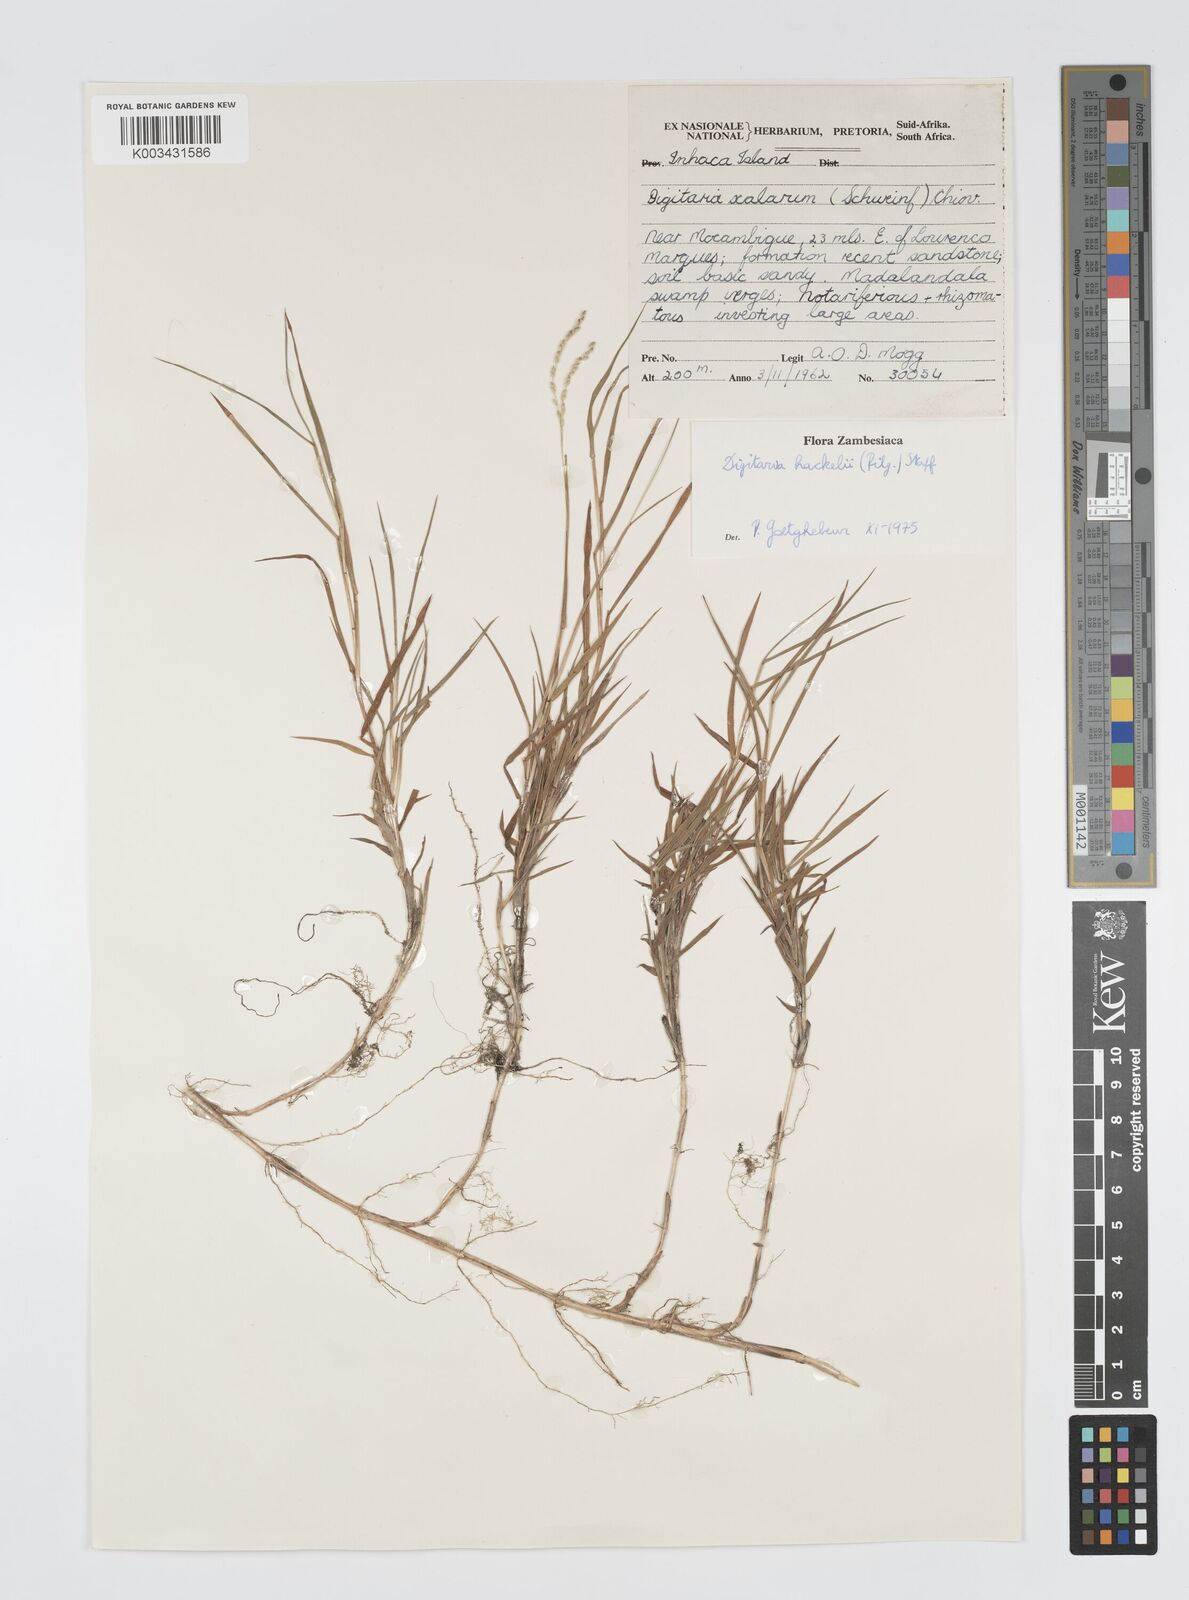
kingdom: Plantae
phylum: Tracheophyta
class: Liliopsida
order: Poales
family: Poaceae
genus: Digitaria
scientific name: Digitaria abyssinica
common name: African couchgrass
